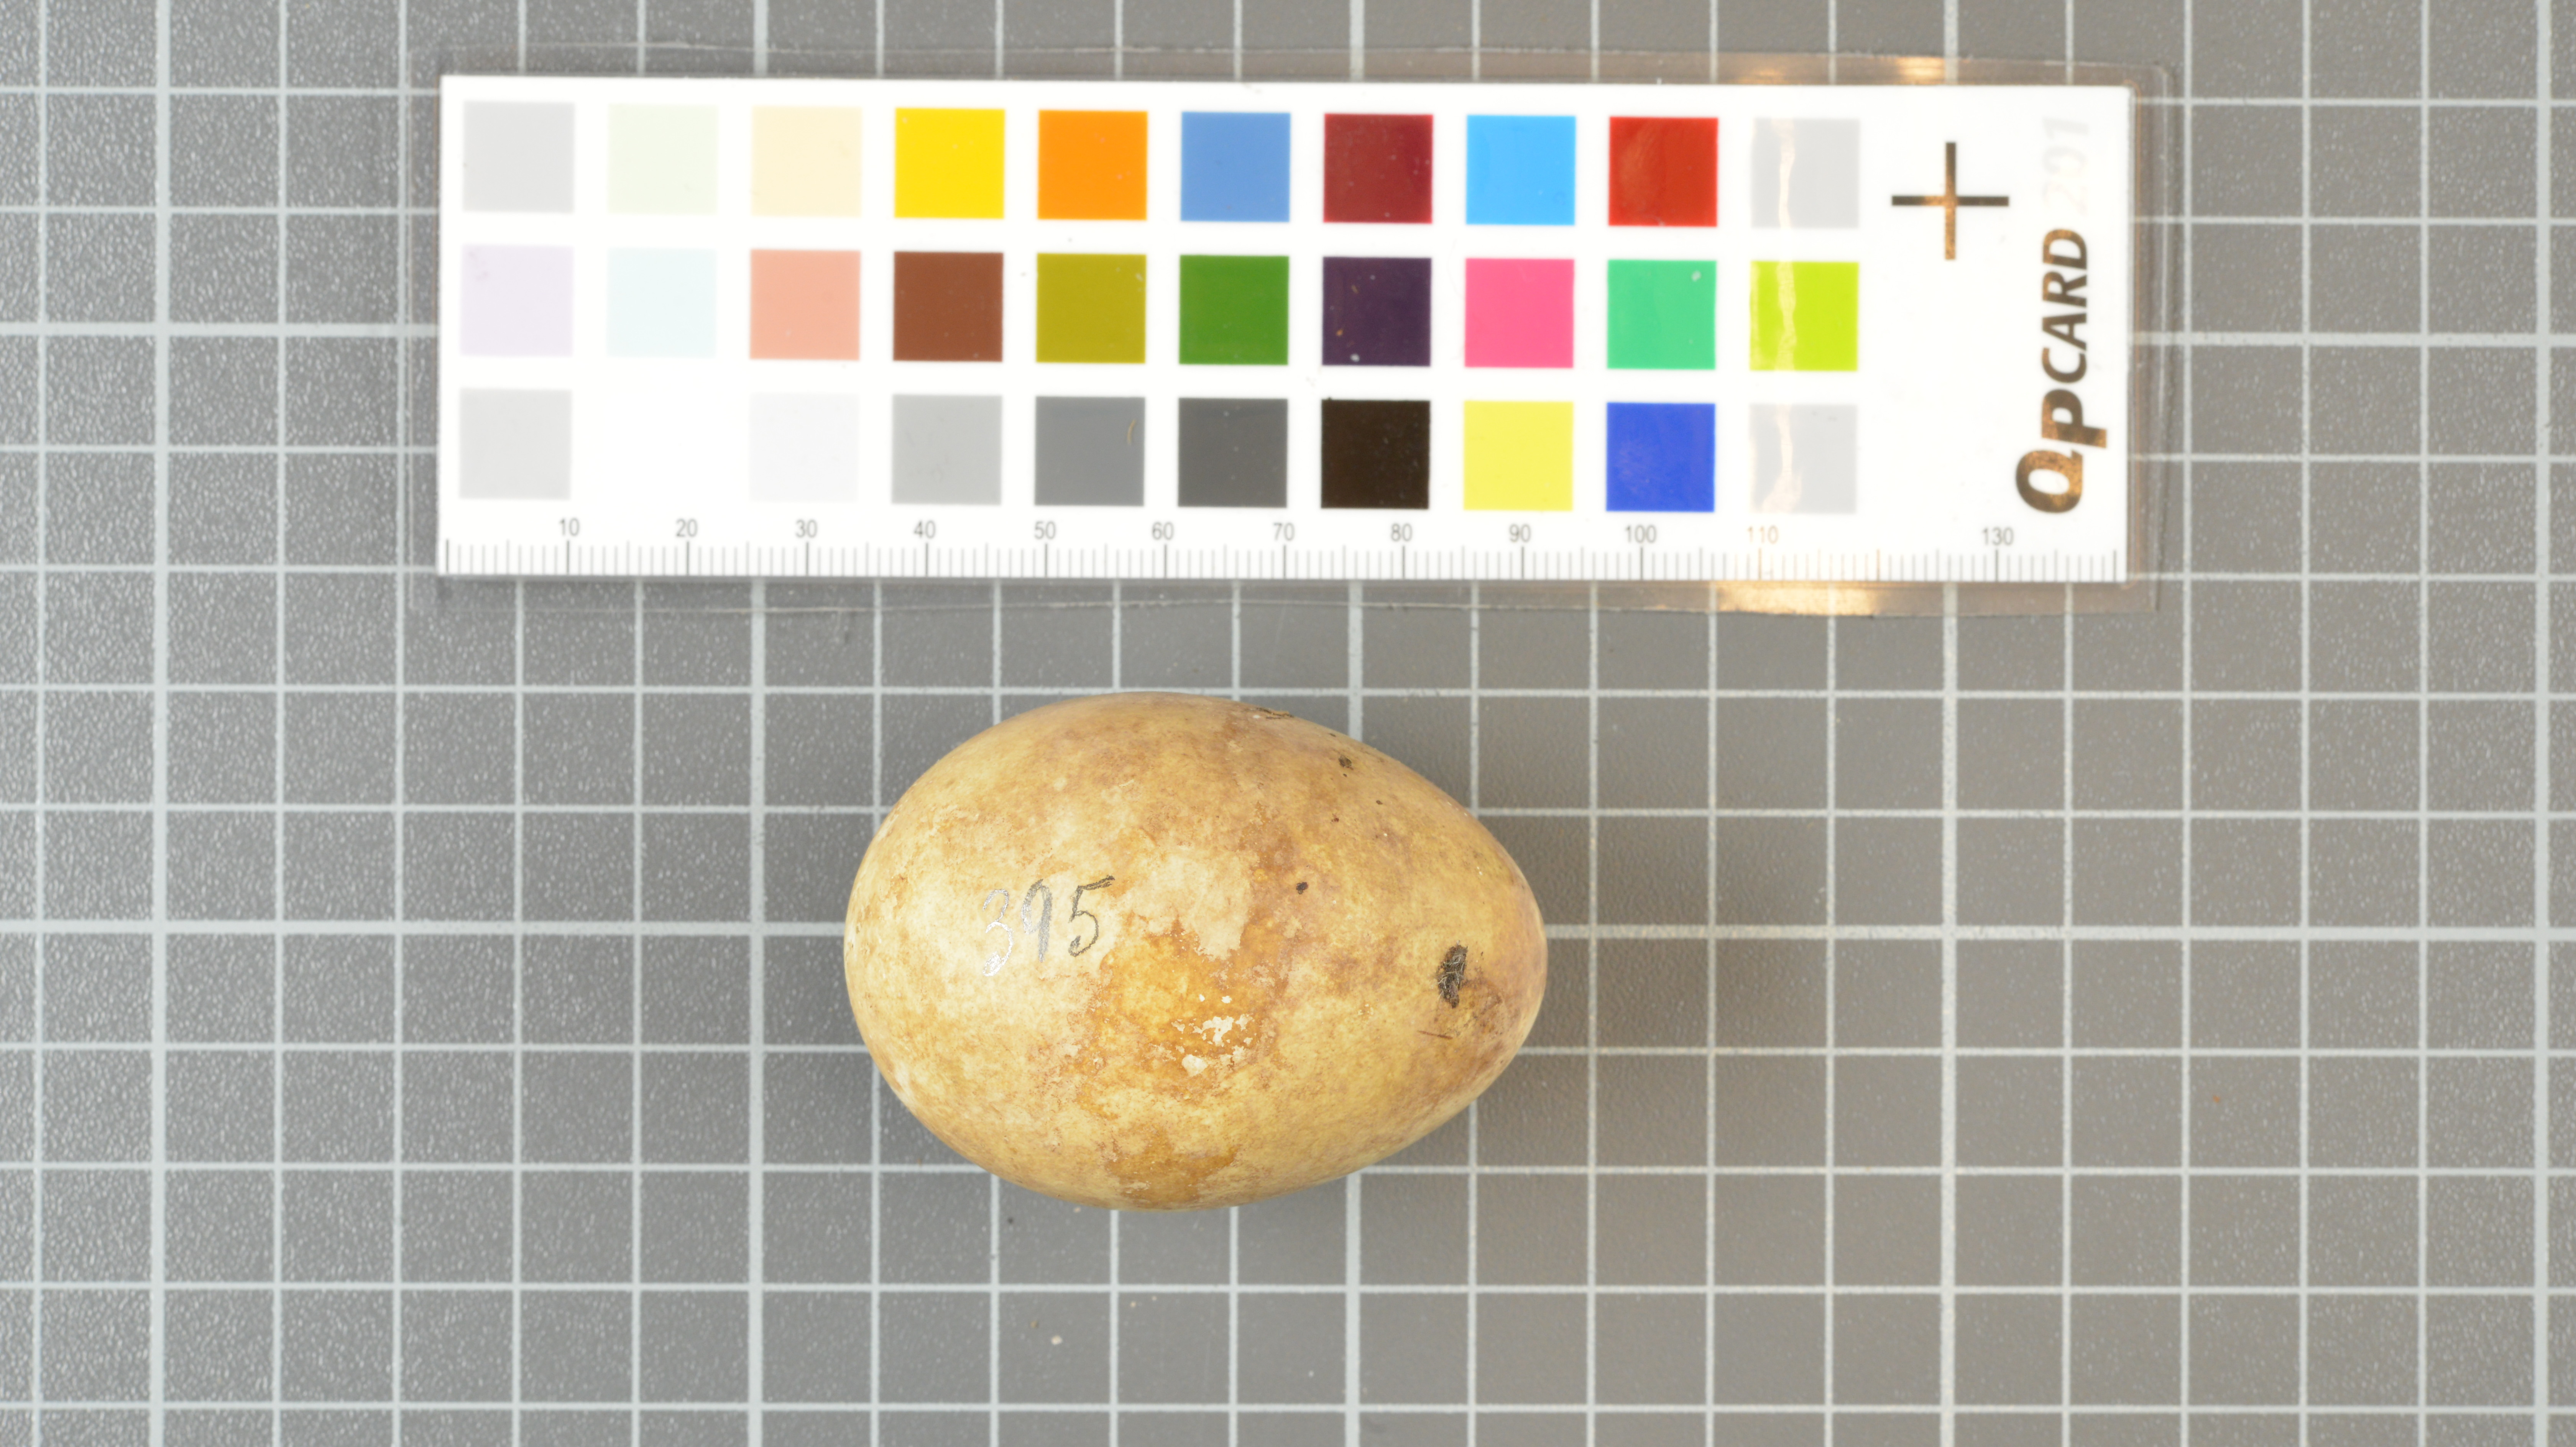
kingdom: Animalia
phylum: Chordata
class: Aves
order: Sphenisciformes
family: Spheniscidae
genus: Eudyptes
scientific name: Eudyptes moseleyi
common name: Northern rockhopper penguin
